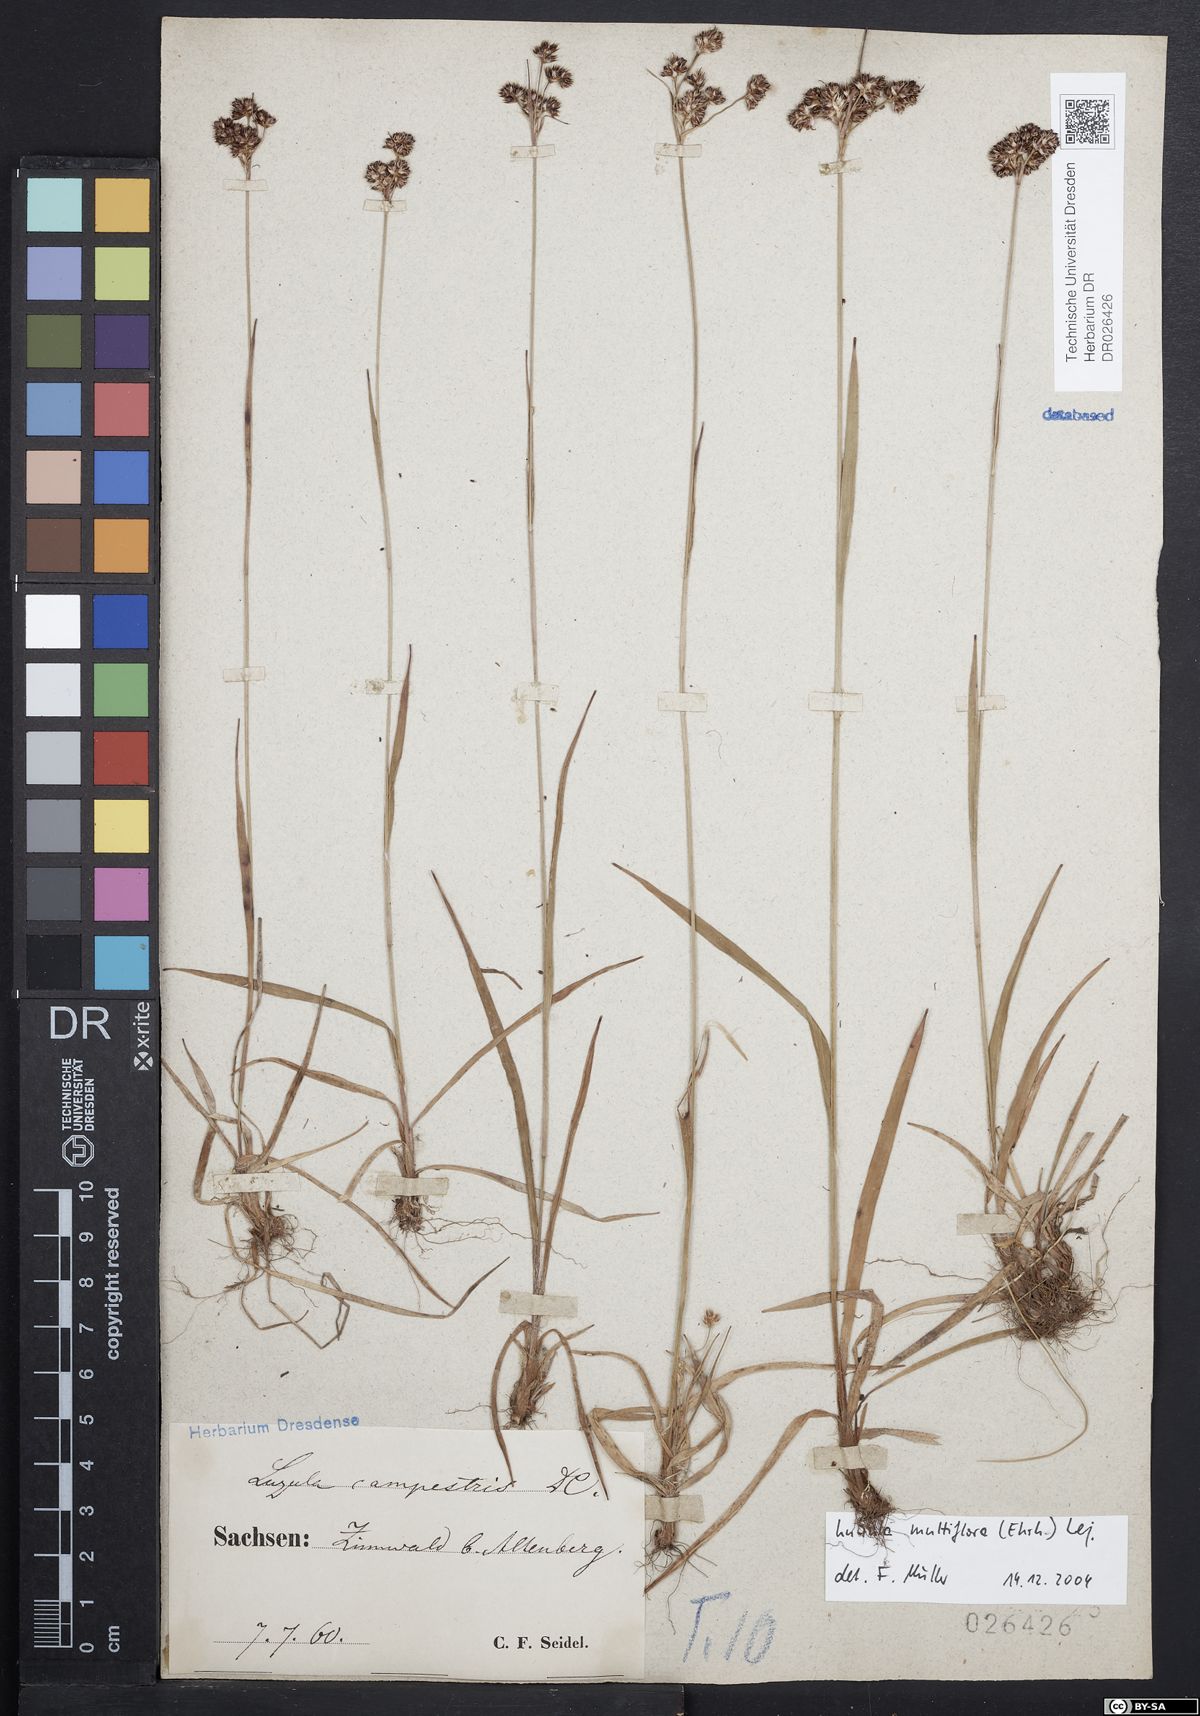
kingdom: Plantae
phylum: Tracheophyta
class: Liliopsida
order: Poales
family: Juncaceae
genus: Luzula
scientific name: Luzula multiflora
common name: Heath wood-rush
